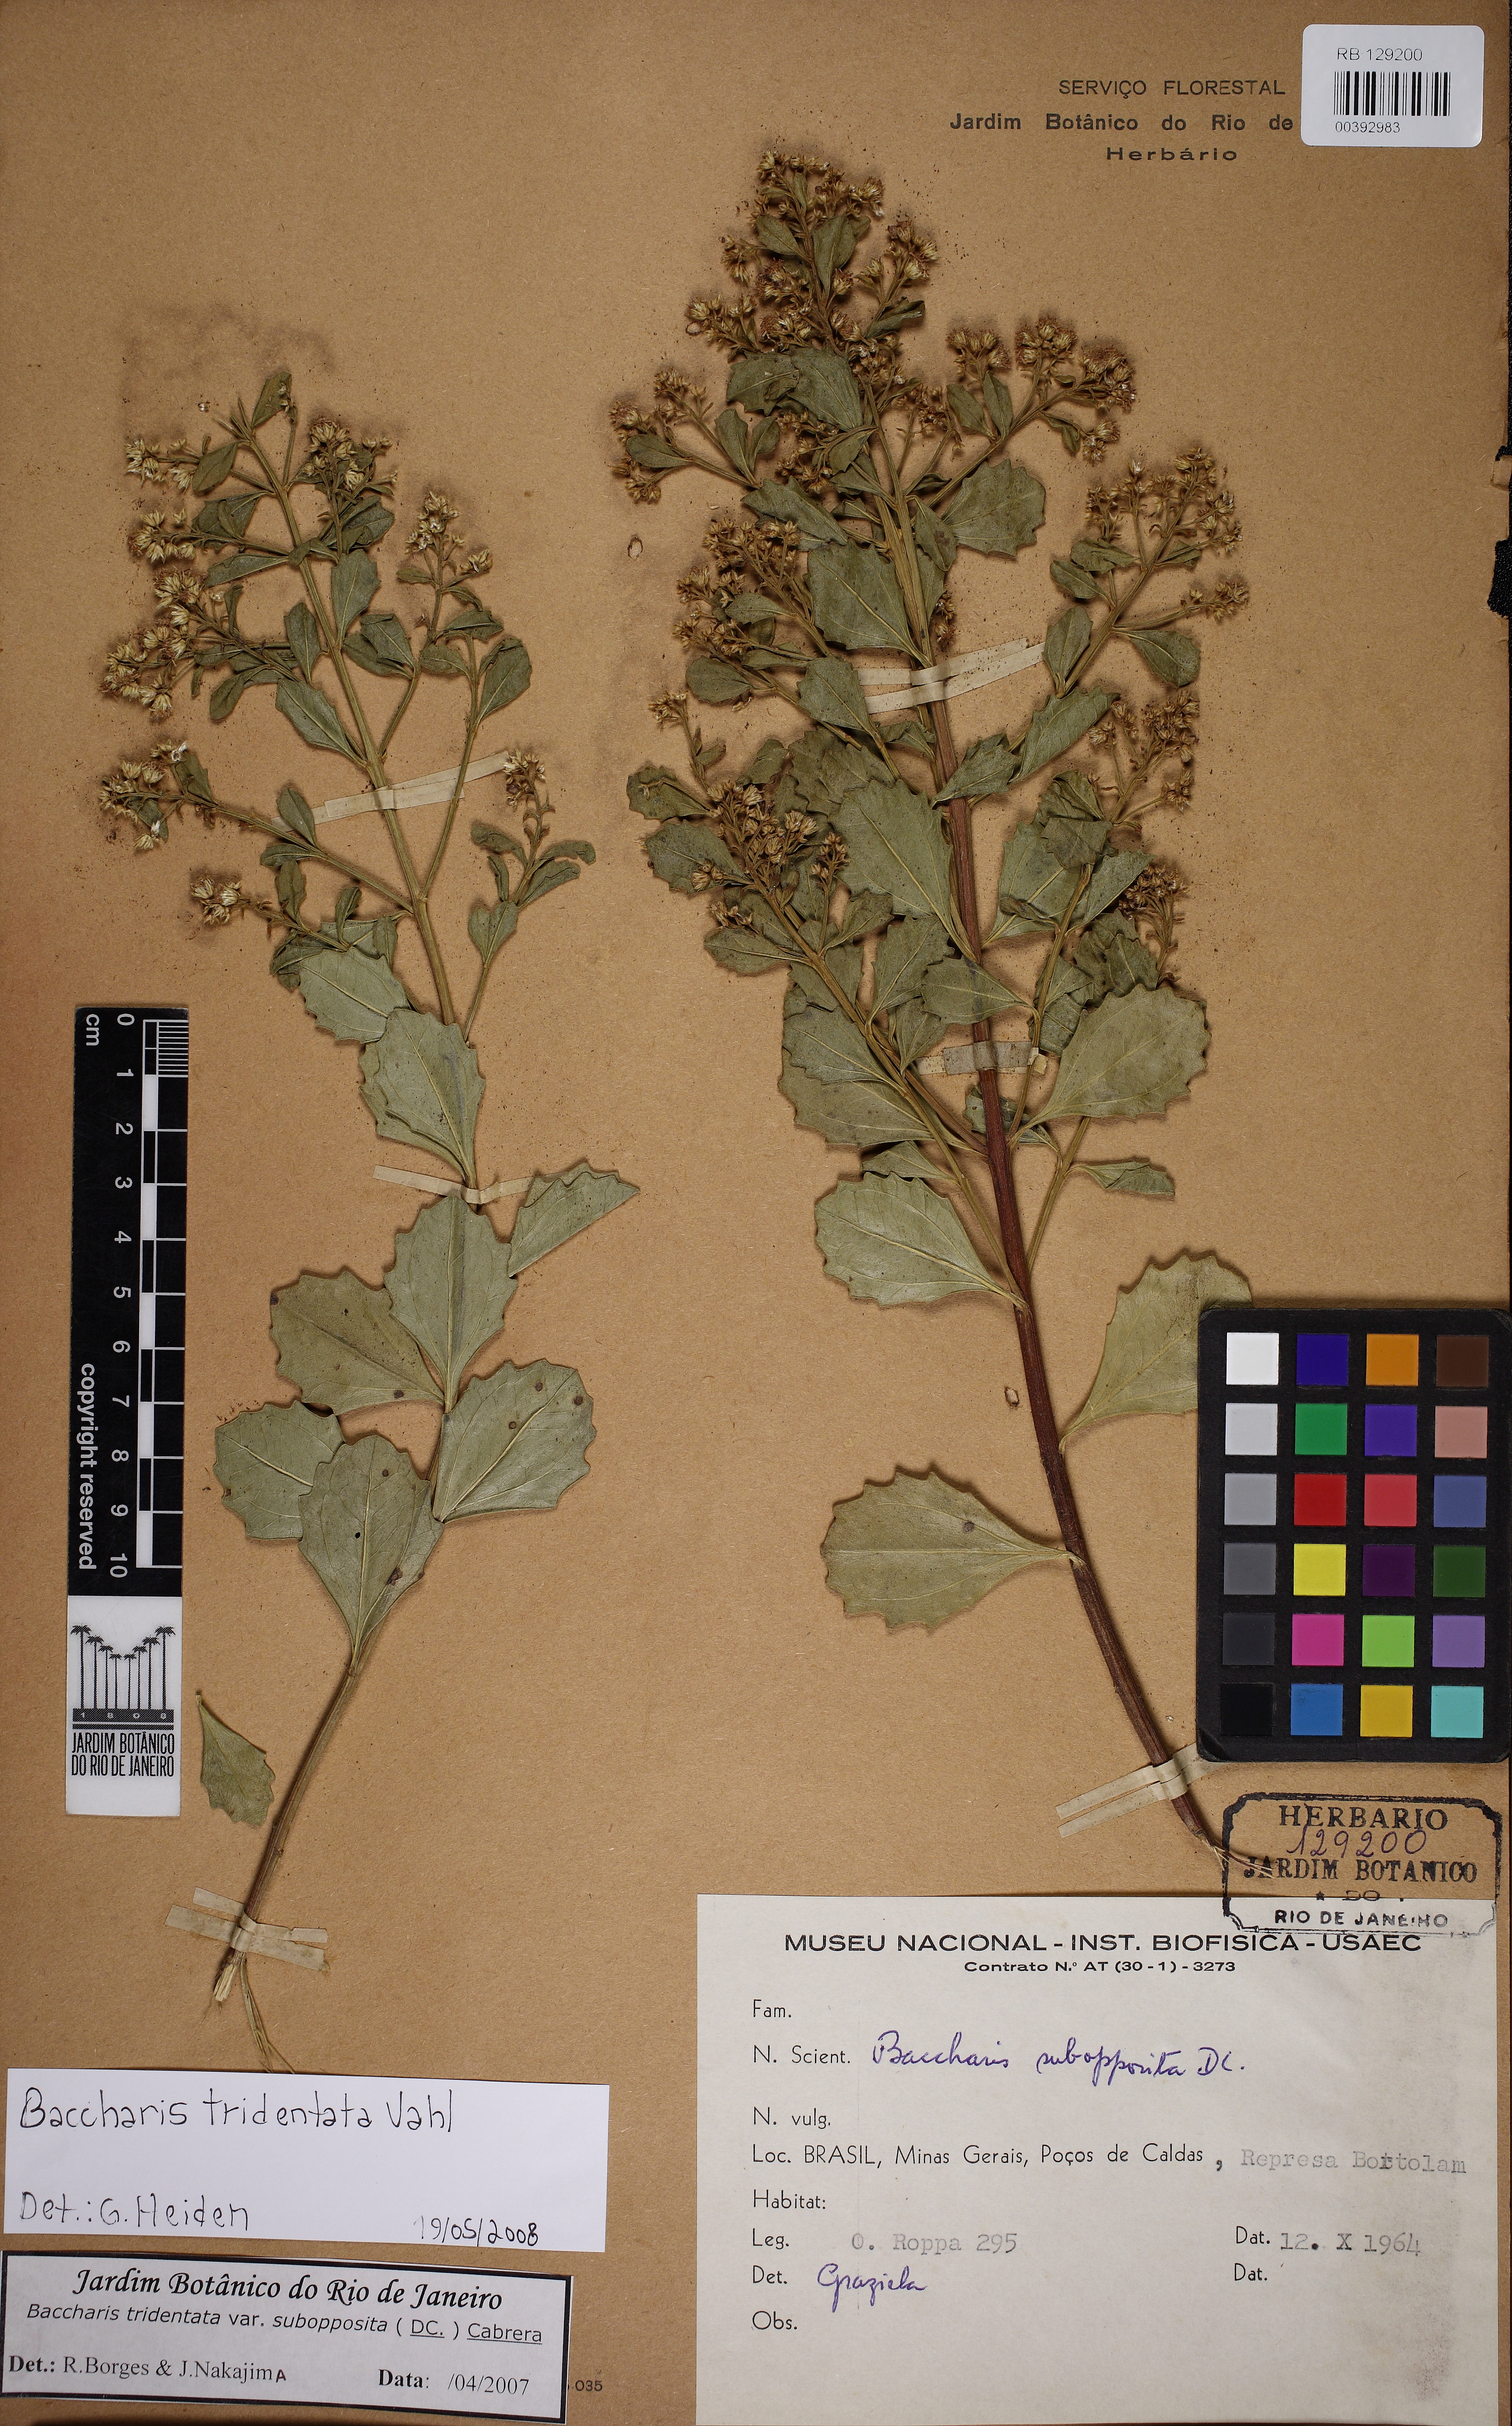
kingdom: Plantae
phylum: Tracheophyta
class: Magnoliopsida
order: Asterales
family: Asteraceae
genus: Baccharis
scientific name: Baccharis tridentata
